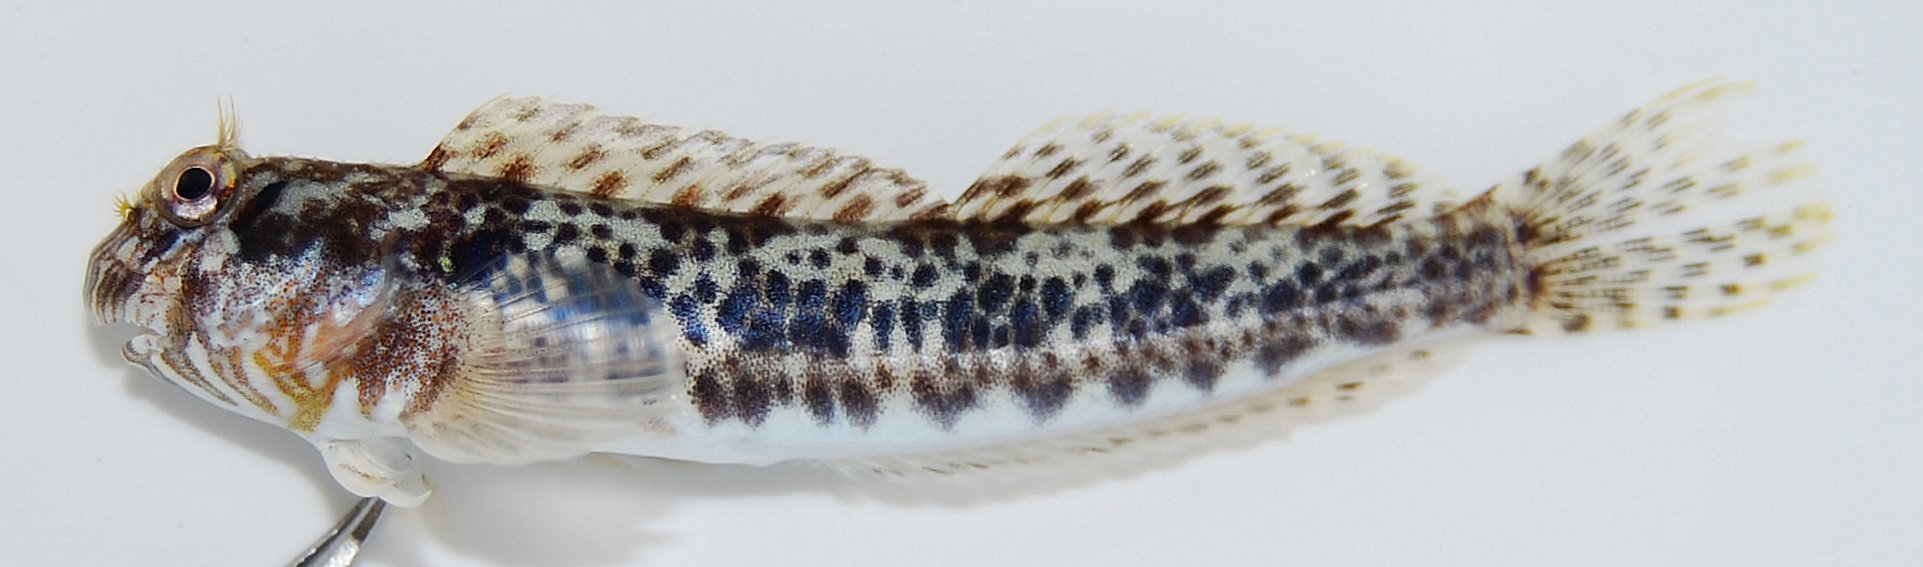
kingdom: Animalia
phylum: Chordata
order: Perciformes
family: Blenniidae
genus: Entomacrodus
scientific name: Entomacrodus striatus
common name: Pearly rockskipper
